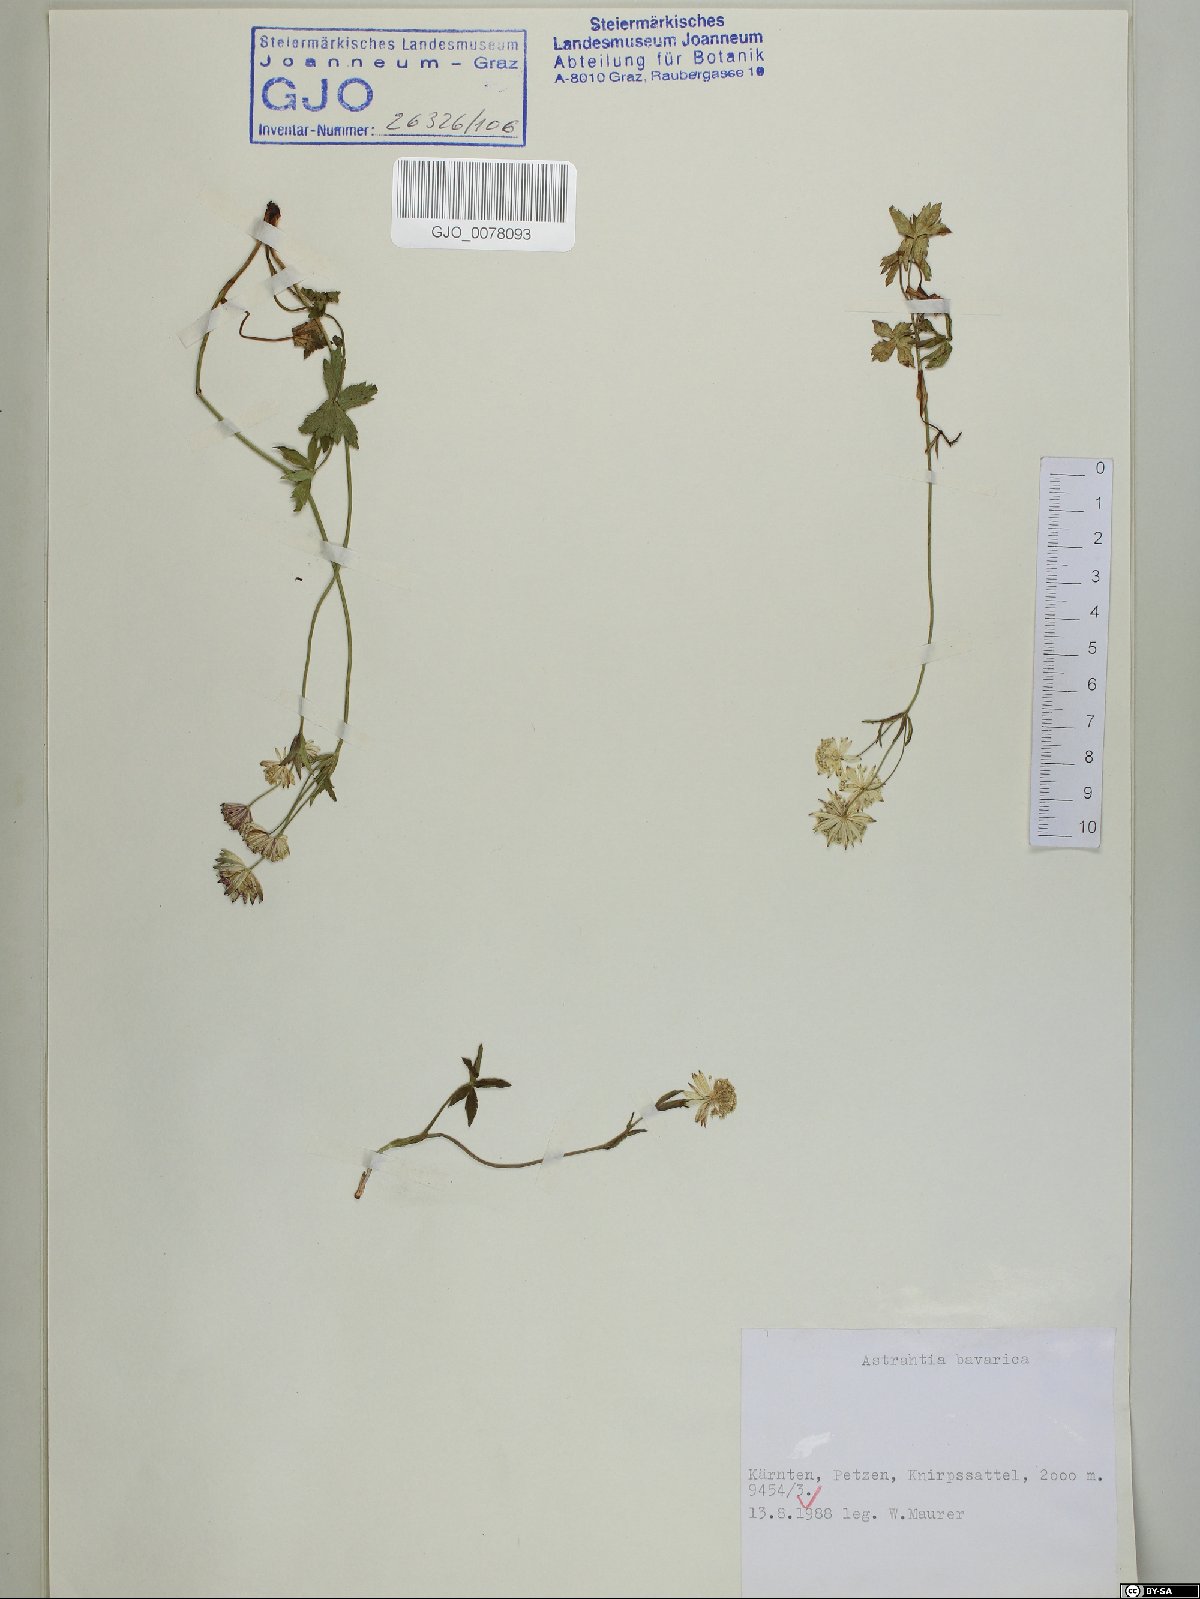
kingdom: Plantae
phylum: Tracheophyta
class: Magnoliopsida
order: Apiales
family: Apiaceae
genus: Astrantia
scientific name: Astrantia bavarica
